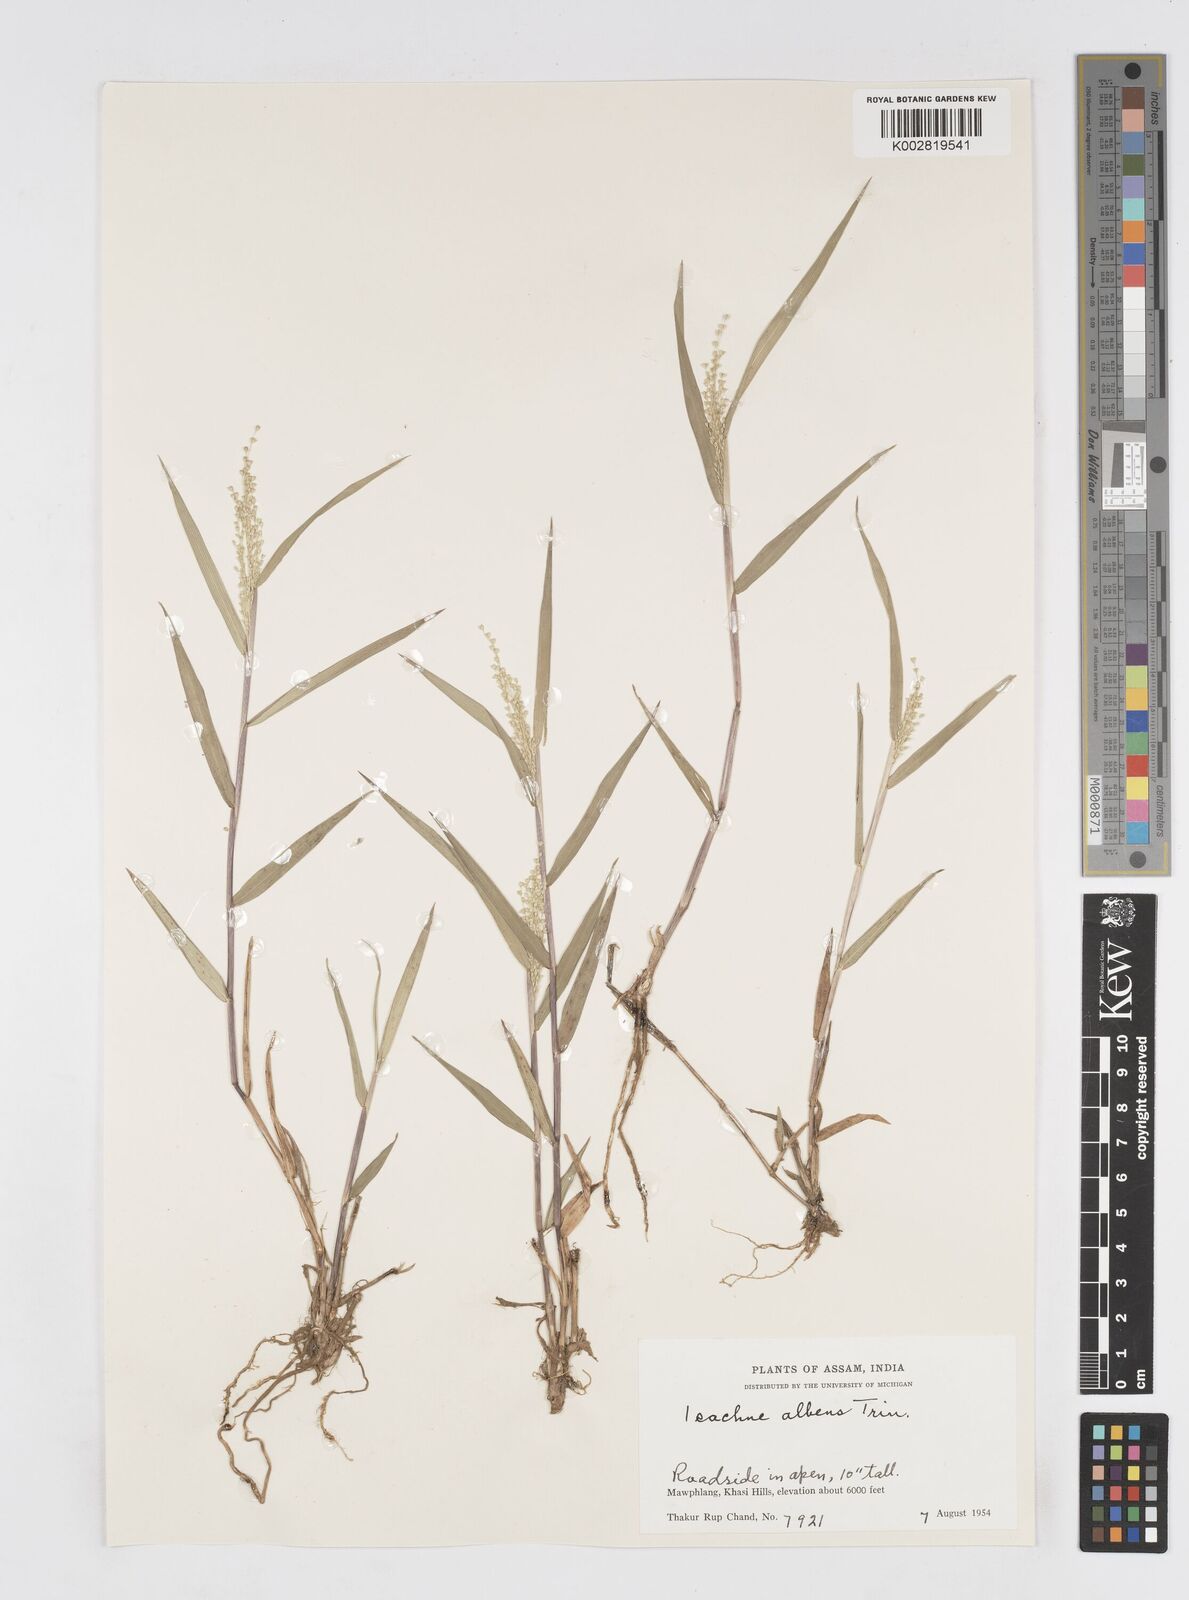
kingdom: Plantae
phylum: Tracheophyta
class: Liliopsida
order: Poales
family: Poaceae
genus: Isachne
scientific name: Isachne albens
